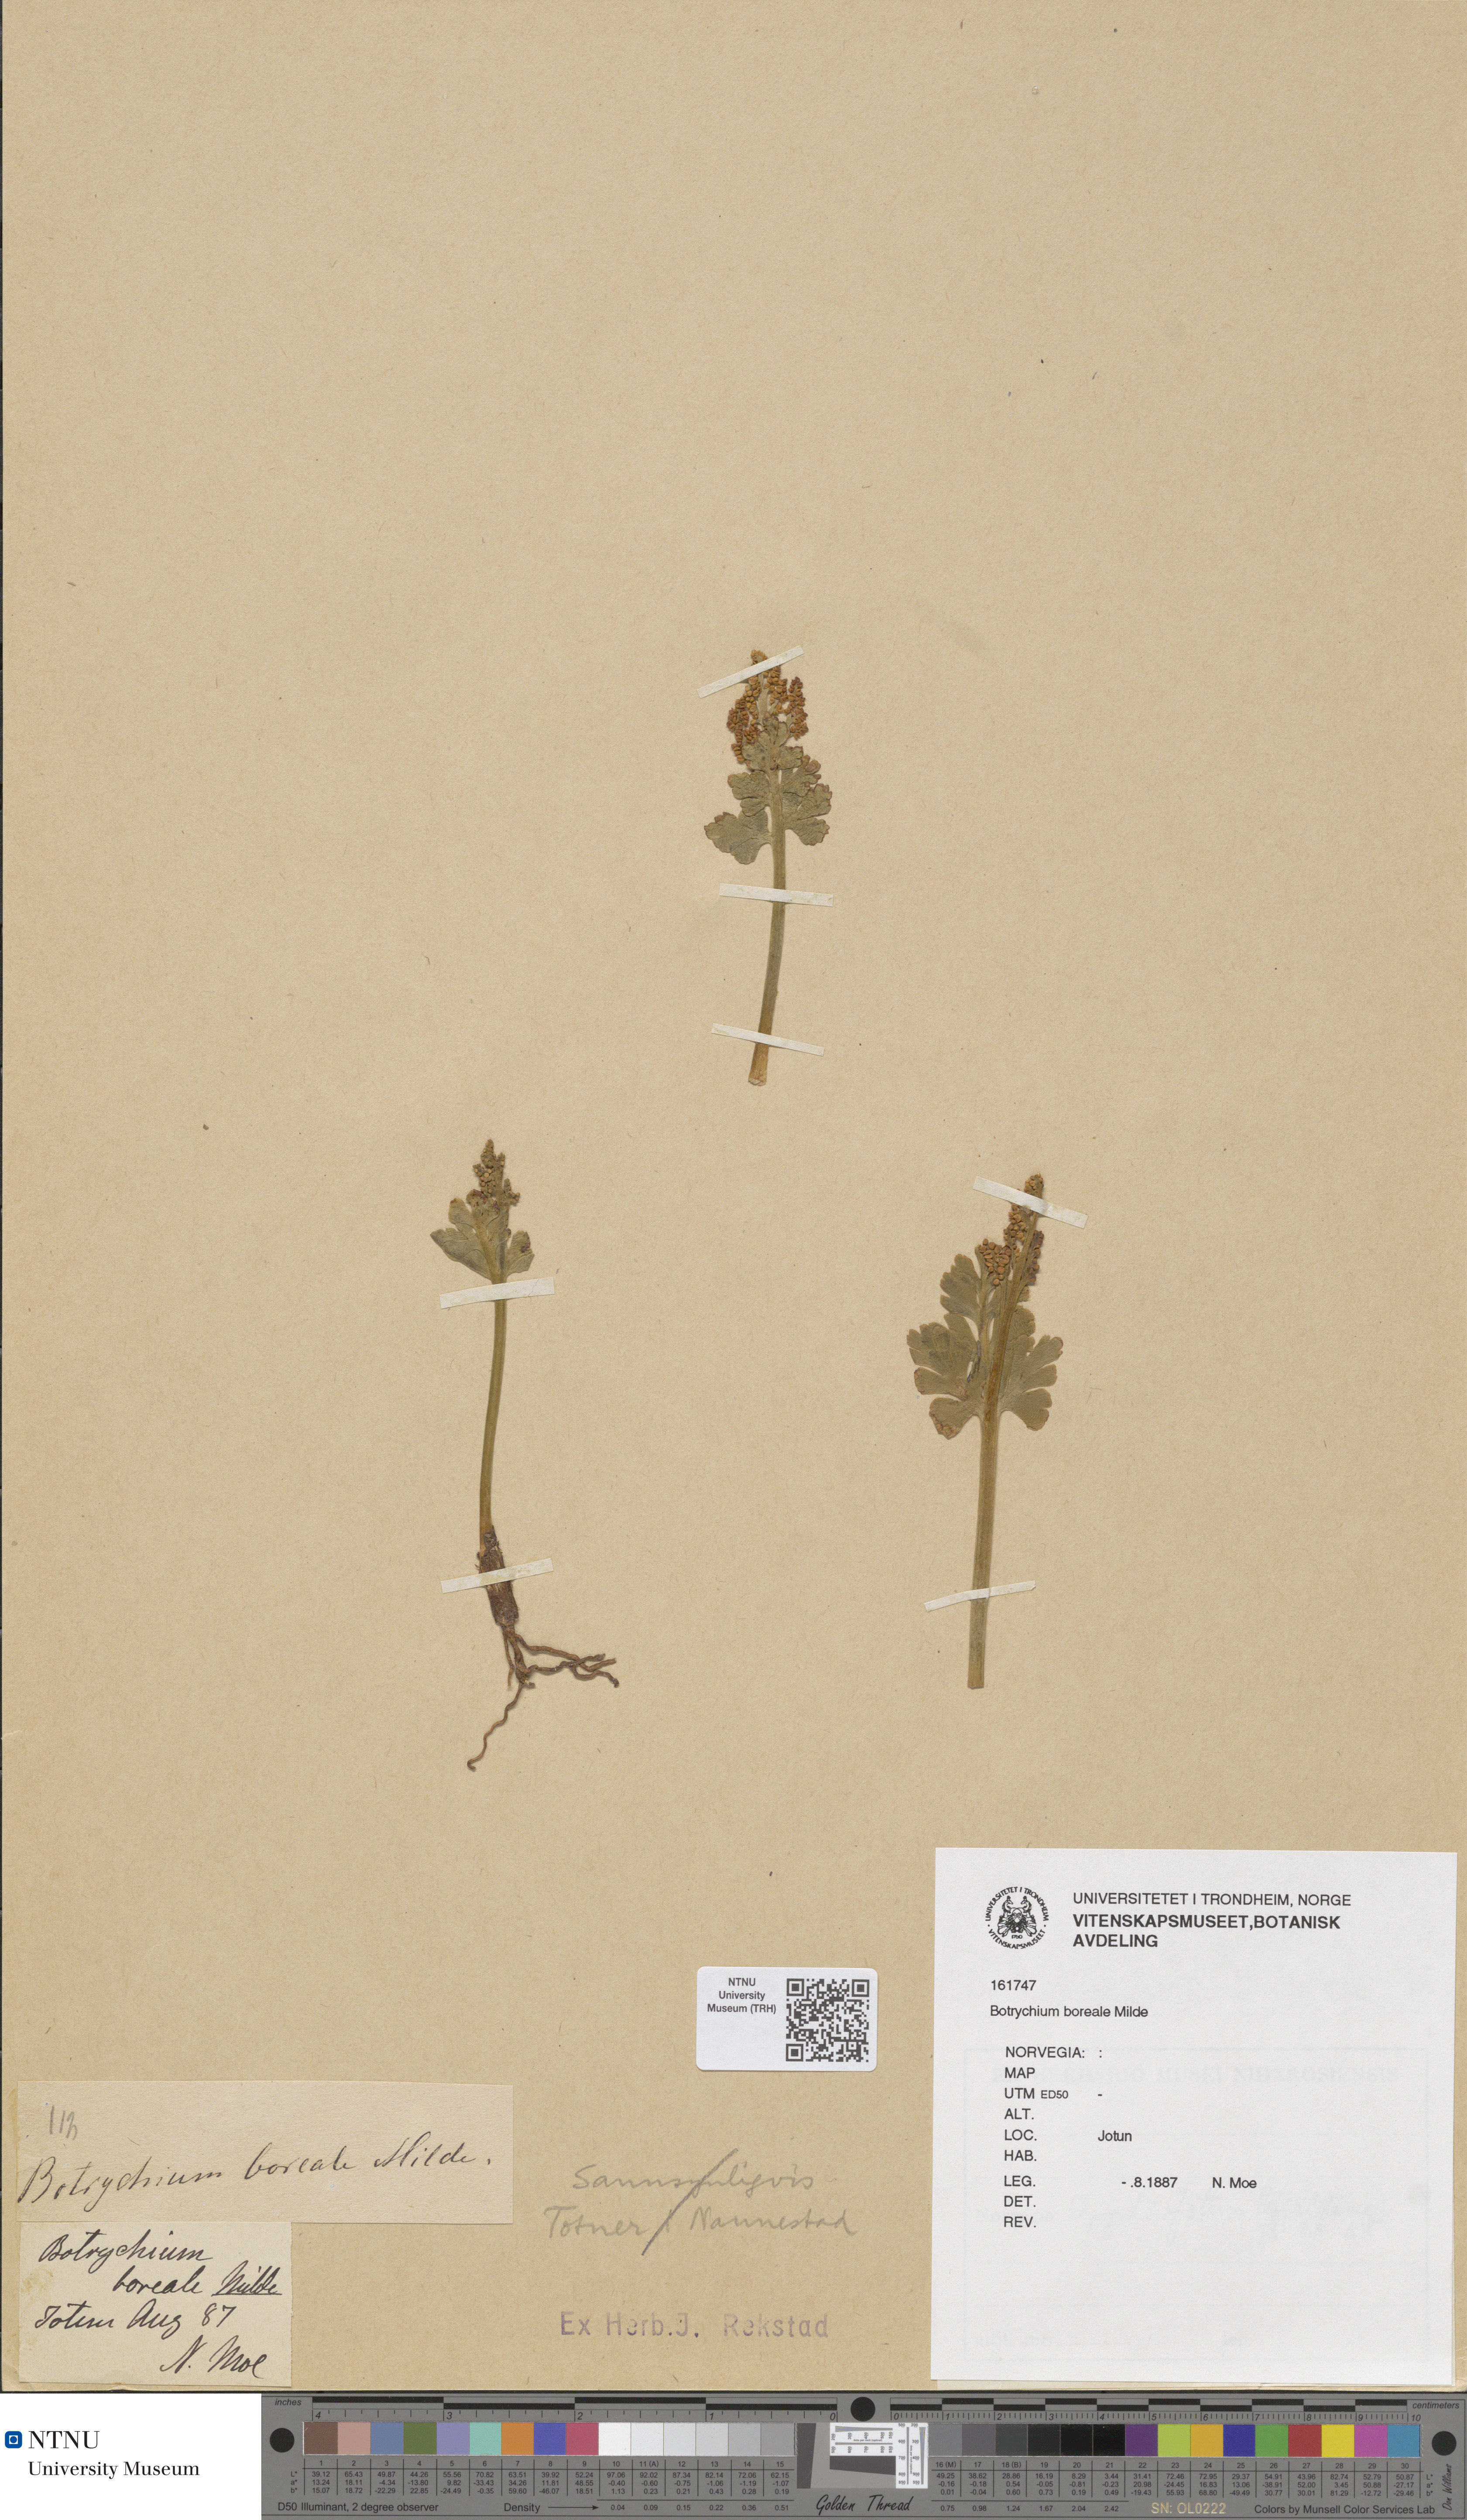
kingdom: Plantae
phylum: Tracheophyta
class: Polypodiopsida
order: Ophioglossales
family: Ophioglossaceae
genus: Botrychium
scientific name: Botrychium boreale
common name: Boreal moonwort
